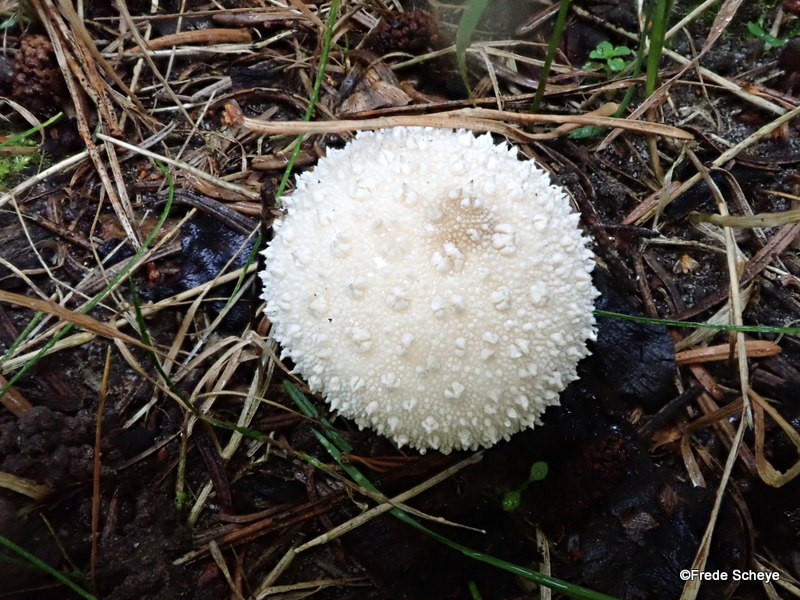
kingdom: Fungi
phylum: Basidiomycota
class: Agaricomycetes
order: Agaricales
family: Lycoperdaceae
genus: Lycoperdon
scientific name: Lycoperdon perlatum
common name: krystal-støvbold
